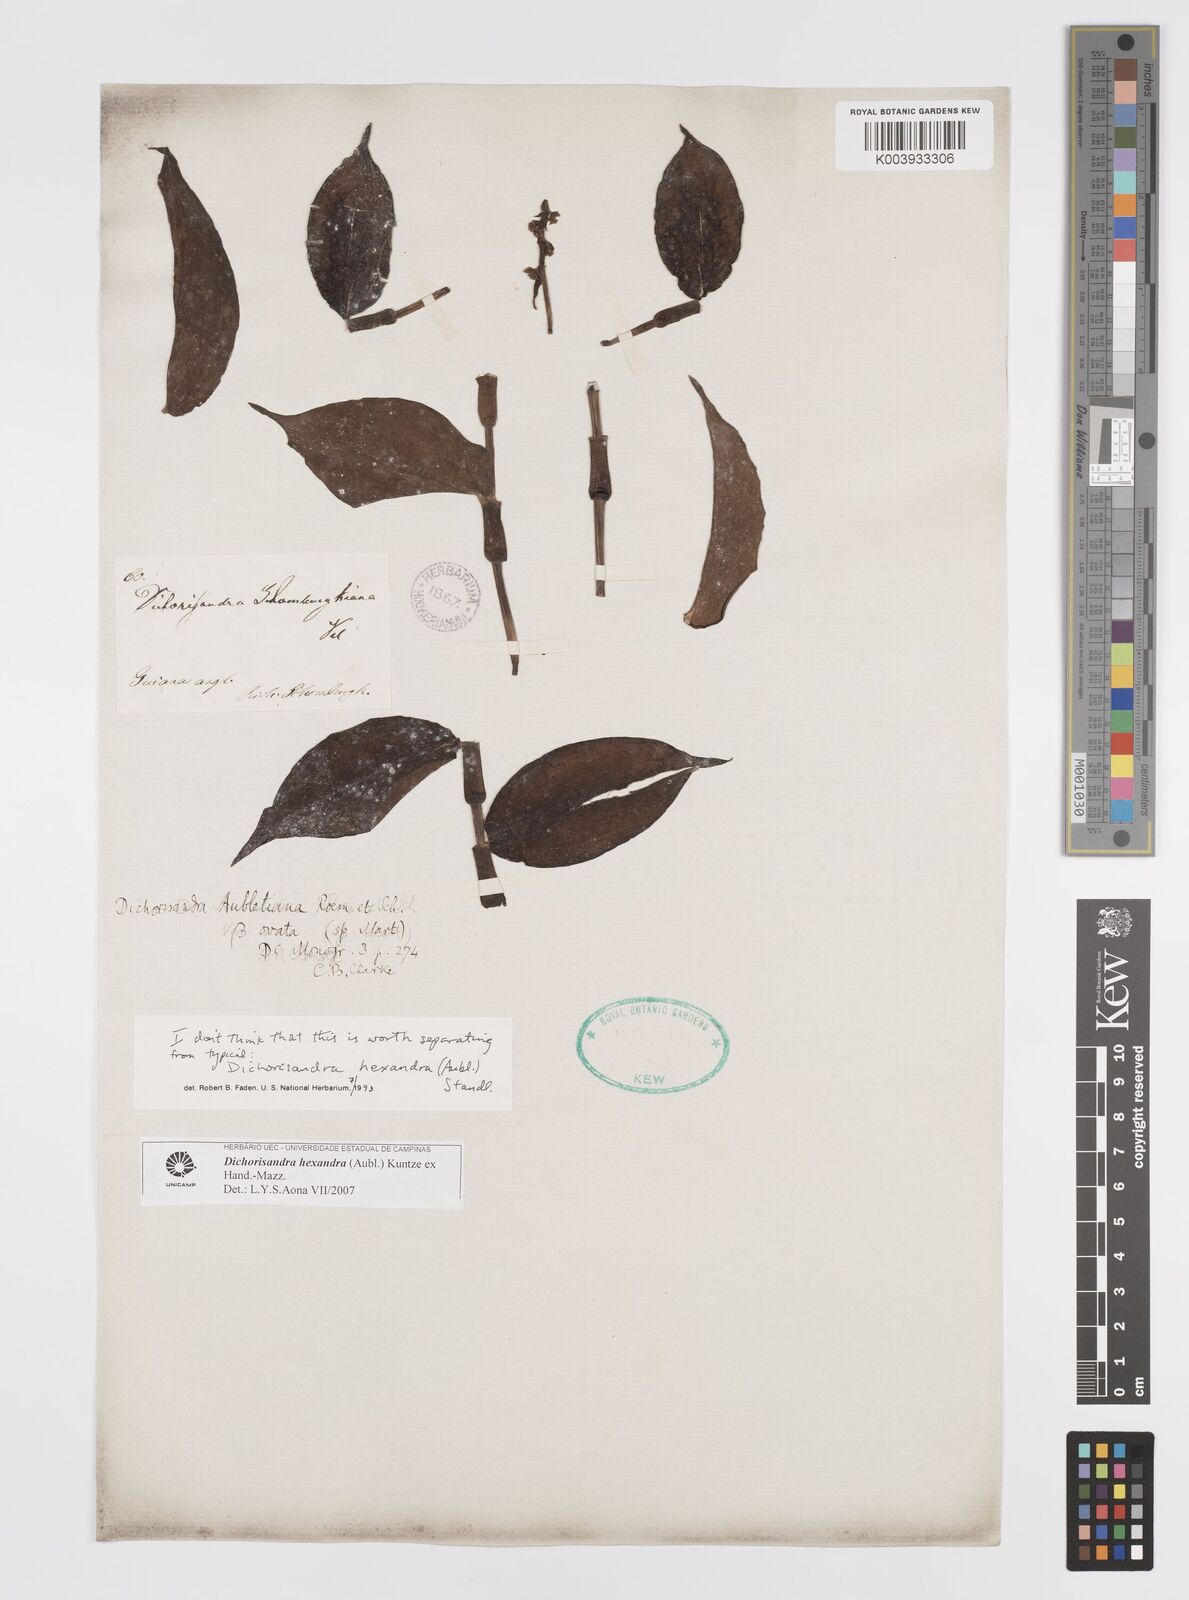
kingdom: Plantae
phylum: Tracheophyta
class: Liliopsida
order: Commelinales
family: Commelinaceae
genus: Dichorisandra
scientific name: Dichorisandra hexandra
